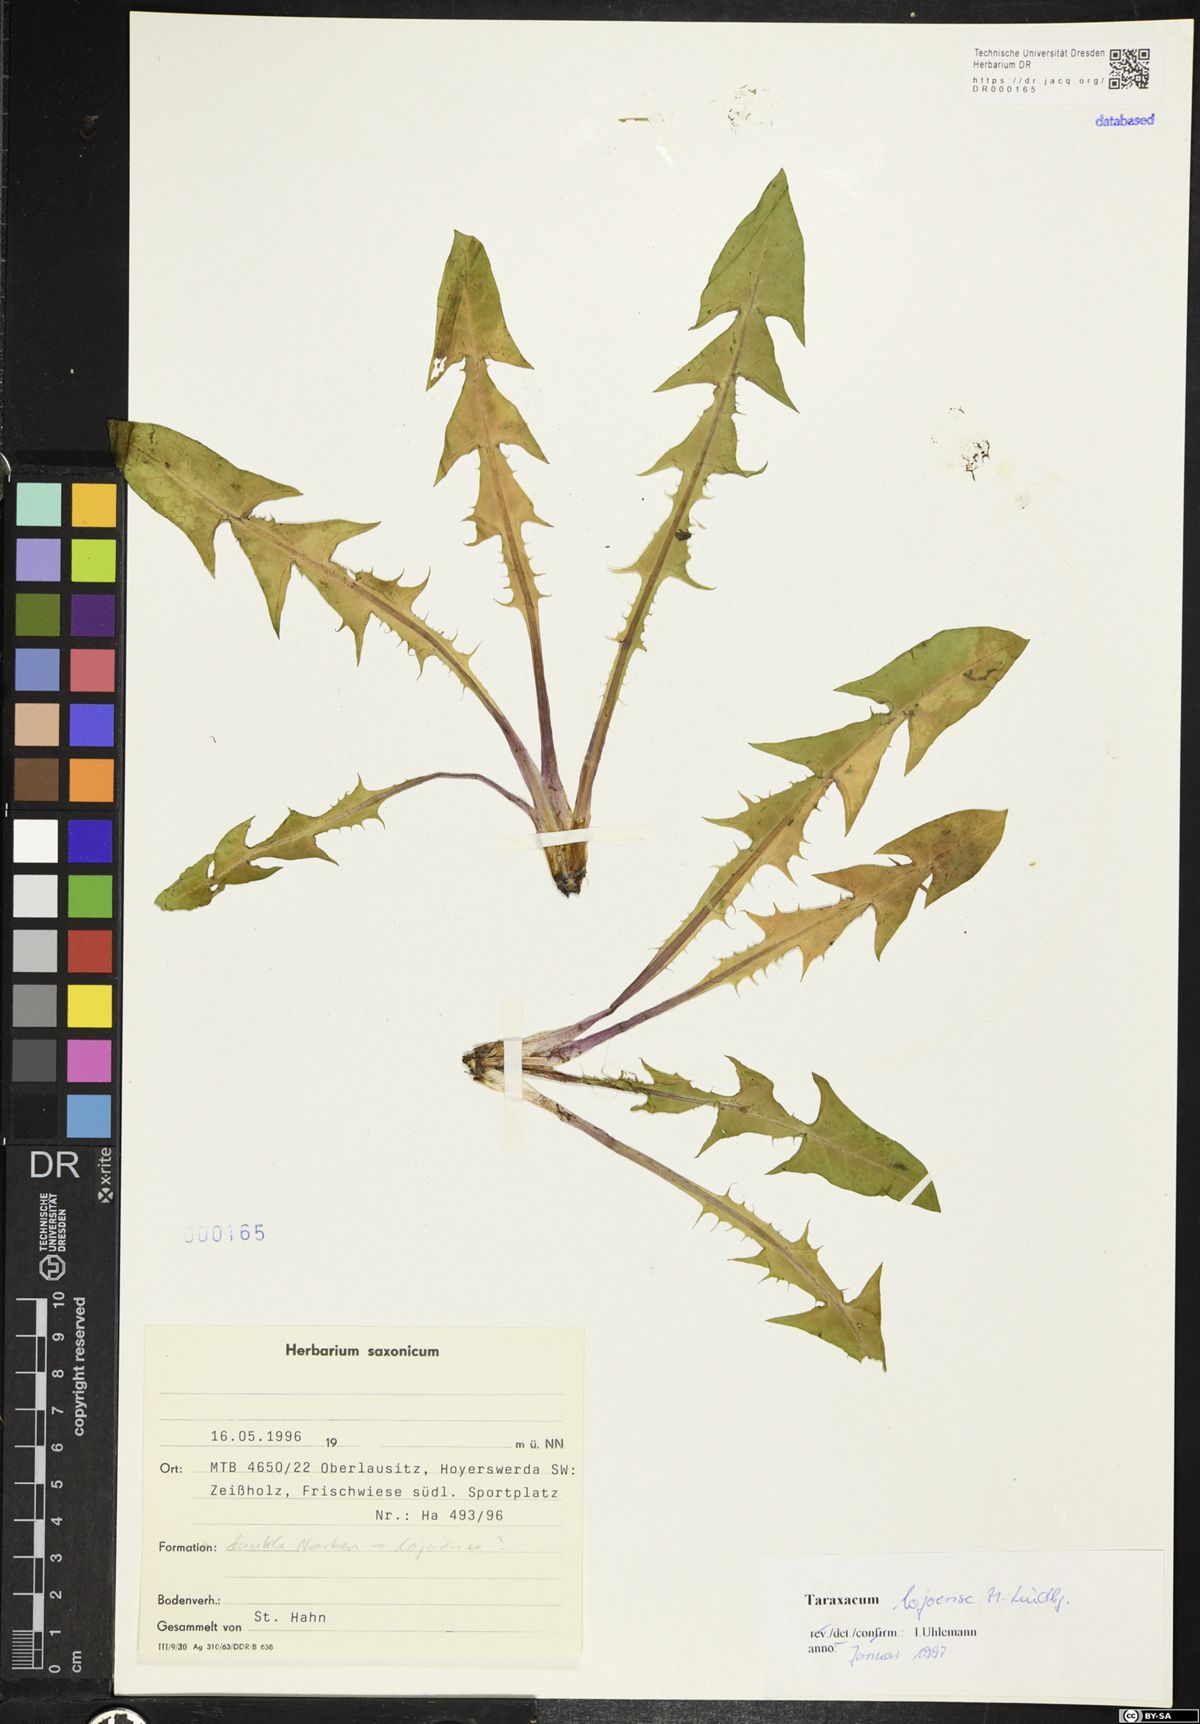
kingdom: Plantae
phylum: Tracheophyta
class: Magnoliopsida
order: Asterales
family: Asteraceae
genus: Taraxacum
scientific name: Taraxacum debrayi
